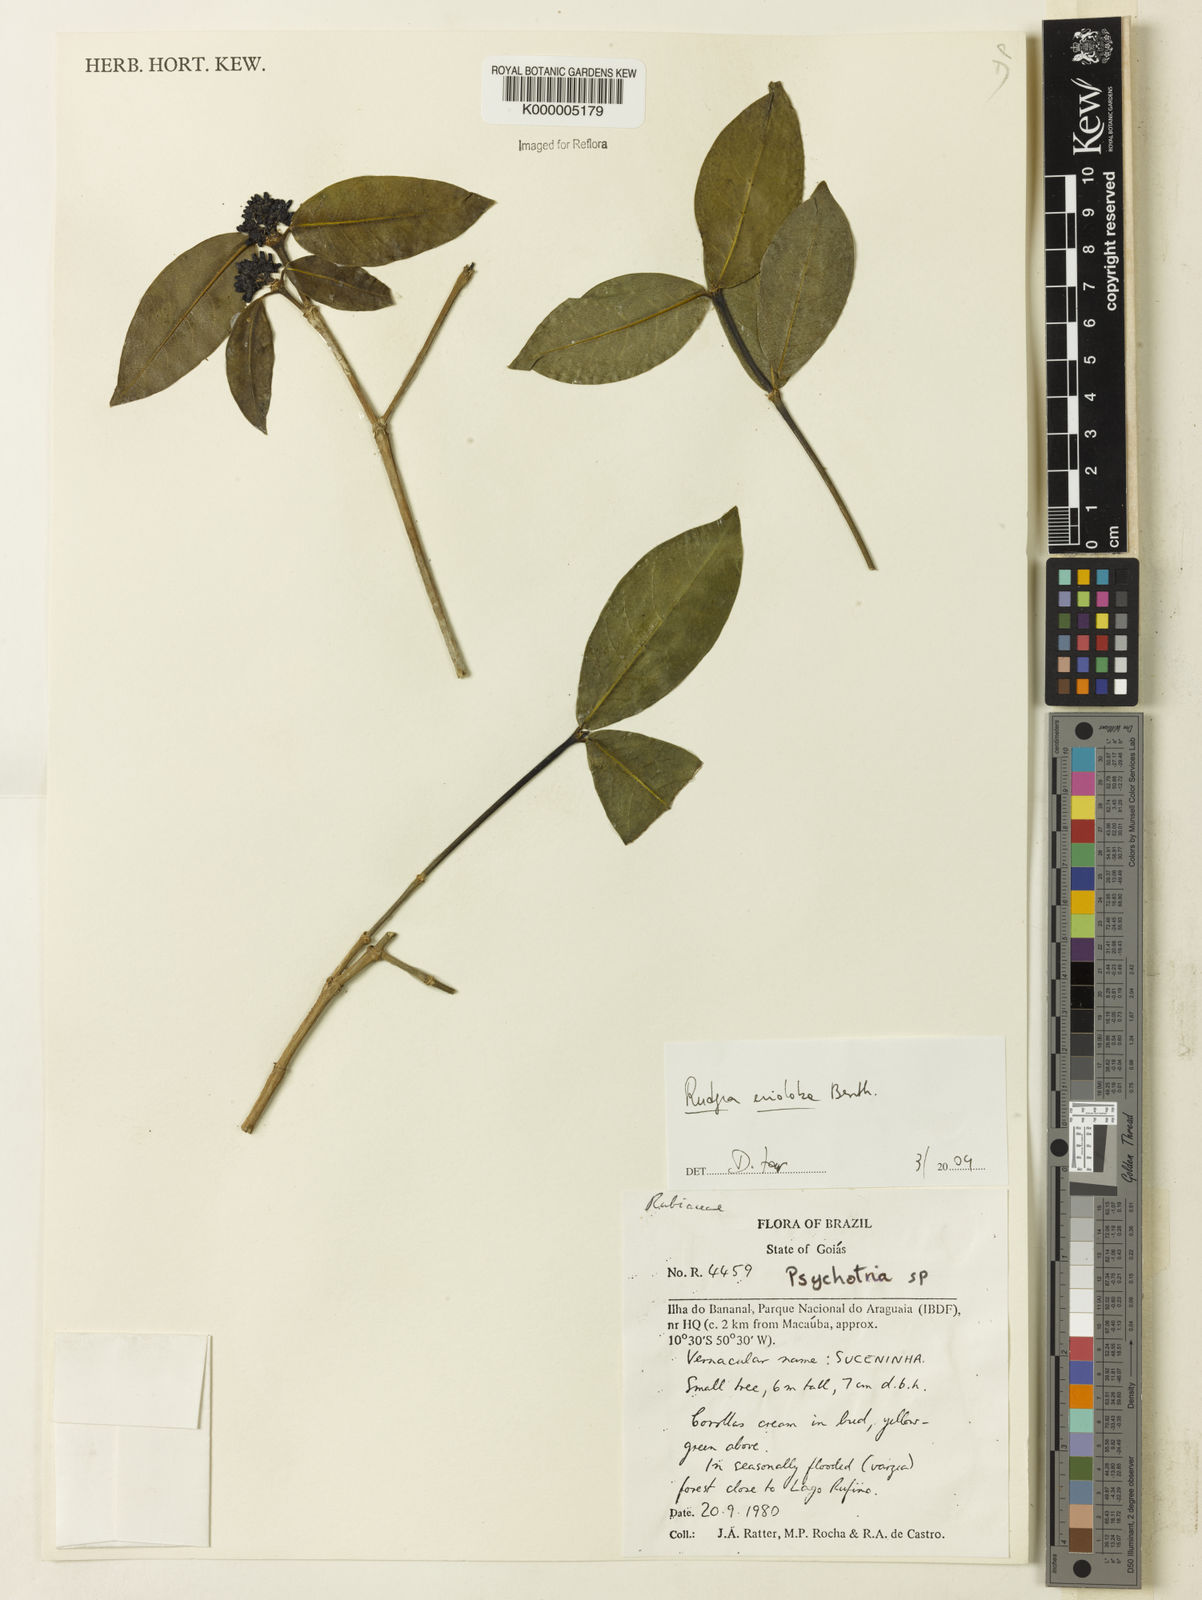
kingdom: Plantae
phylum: Tracheophyta
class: Magnoliopsida
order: Gentianales
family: Rubiaceae
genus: Rudgea
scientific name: Rudgea erioloba
